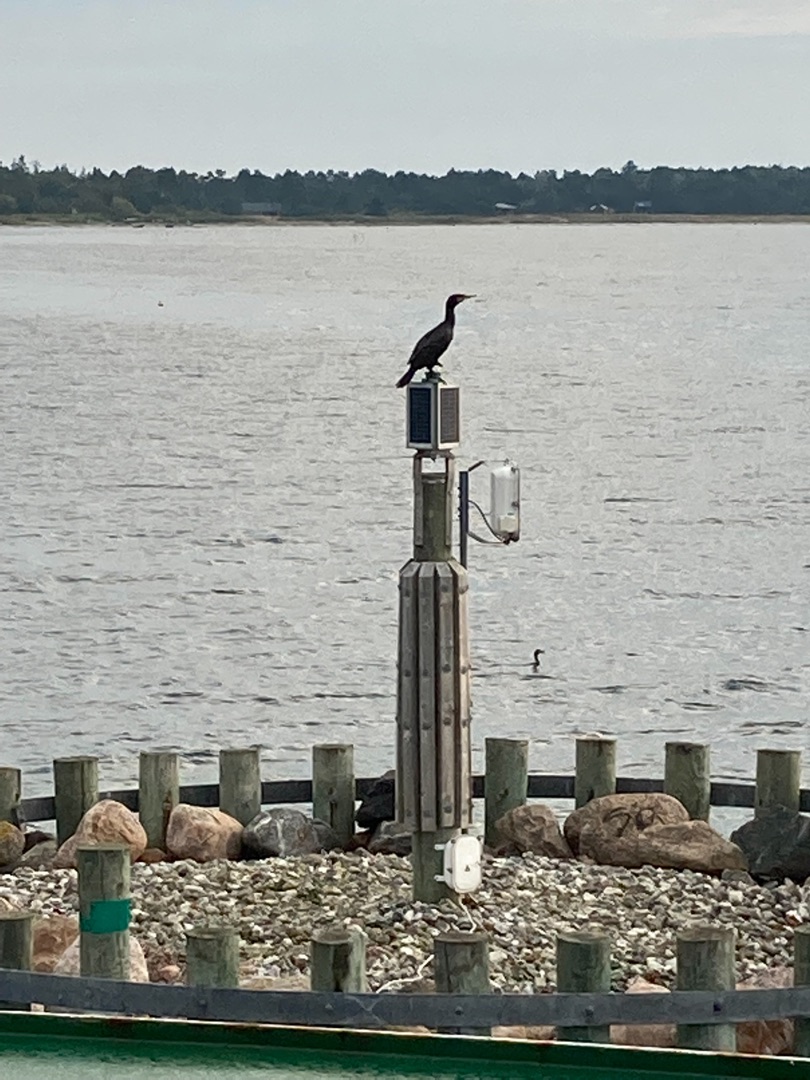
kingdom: Animalia
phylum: Chordata
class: Aves
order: Suliformes
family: Phalacrocoracidae
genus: Phalacrocorax
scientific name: Phalacrocorax carbo
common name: Skarv
